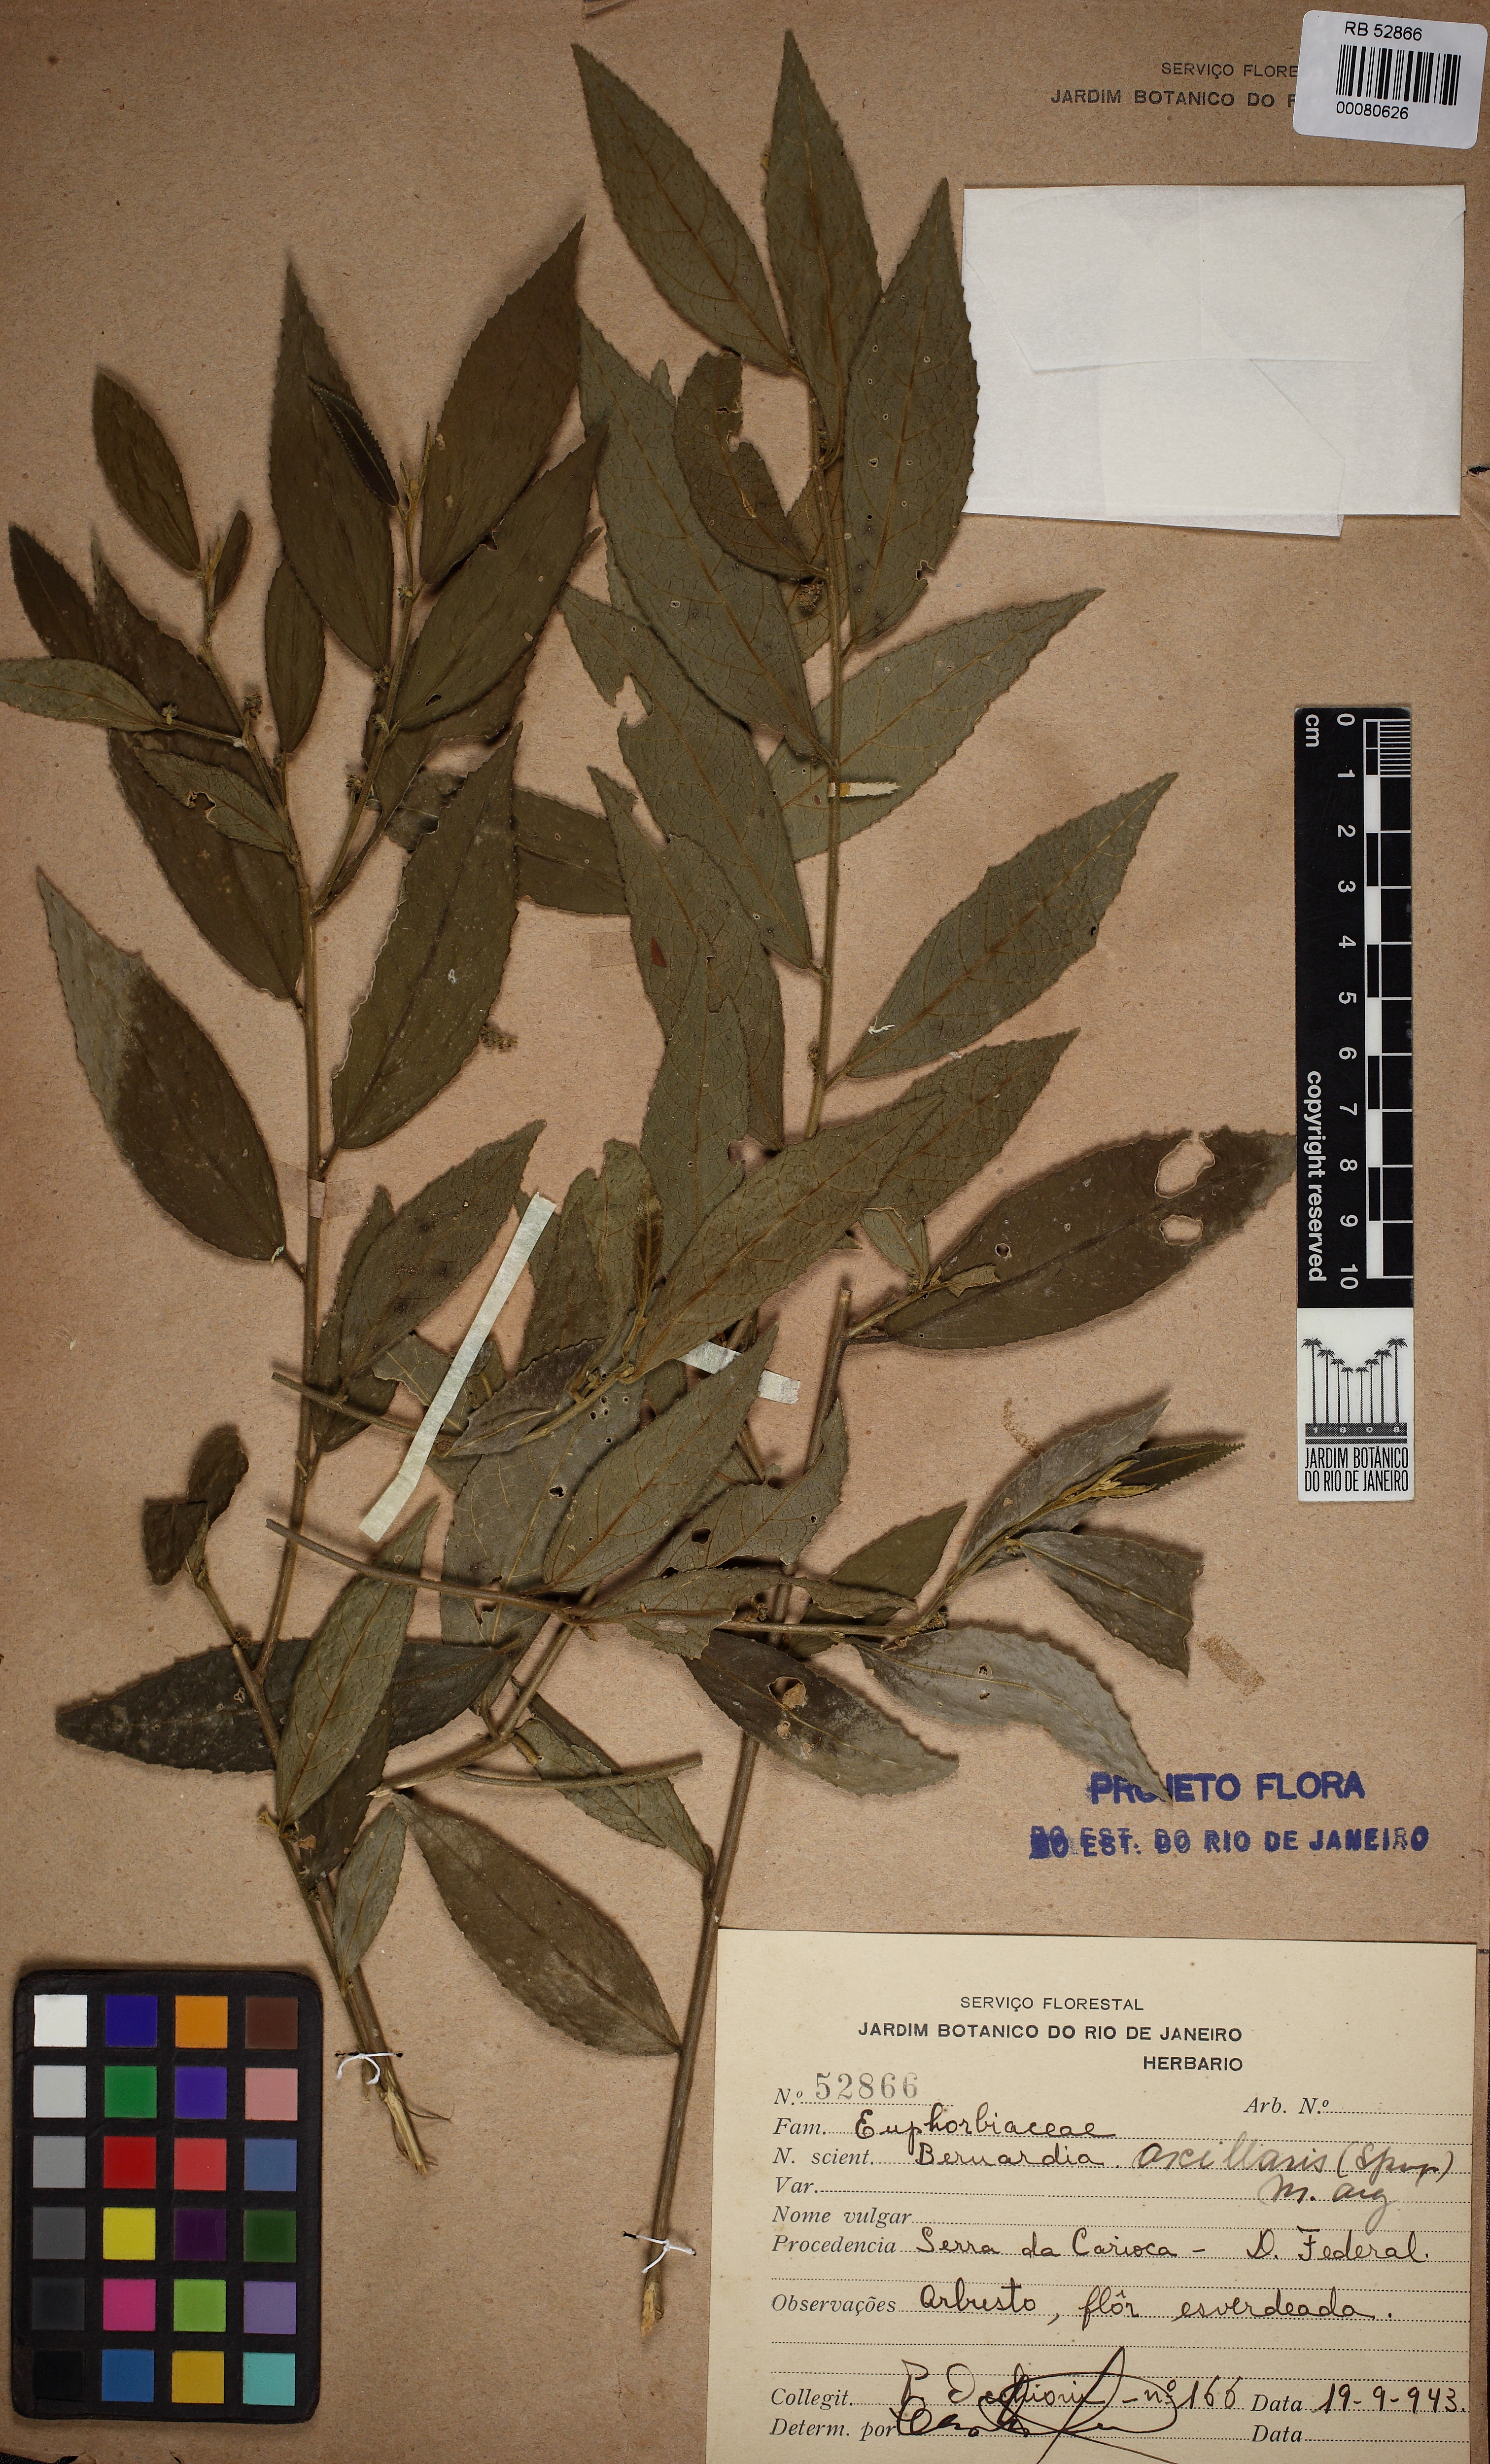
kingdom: Plantae
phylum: Tracheophyta
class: Magnoliopsida
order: Malpighiales
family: Euphorbiaceae
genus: Bernardia
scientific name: Bernardia celastrinea
